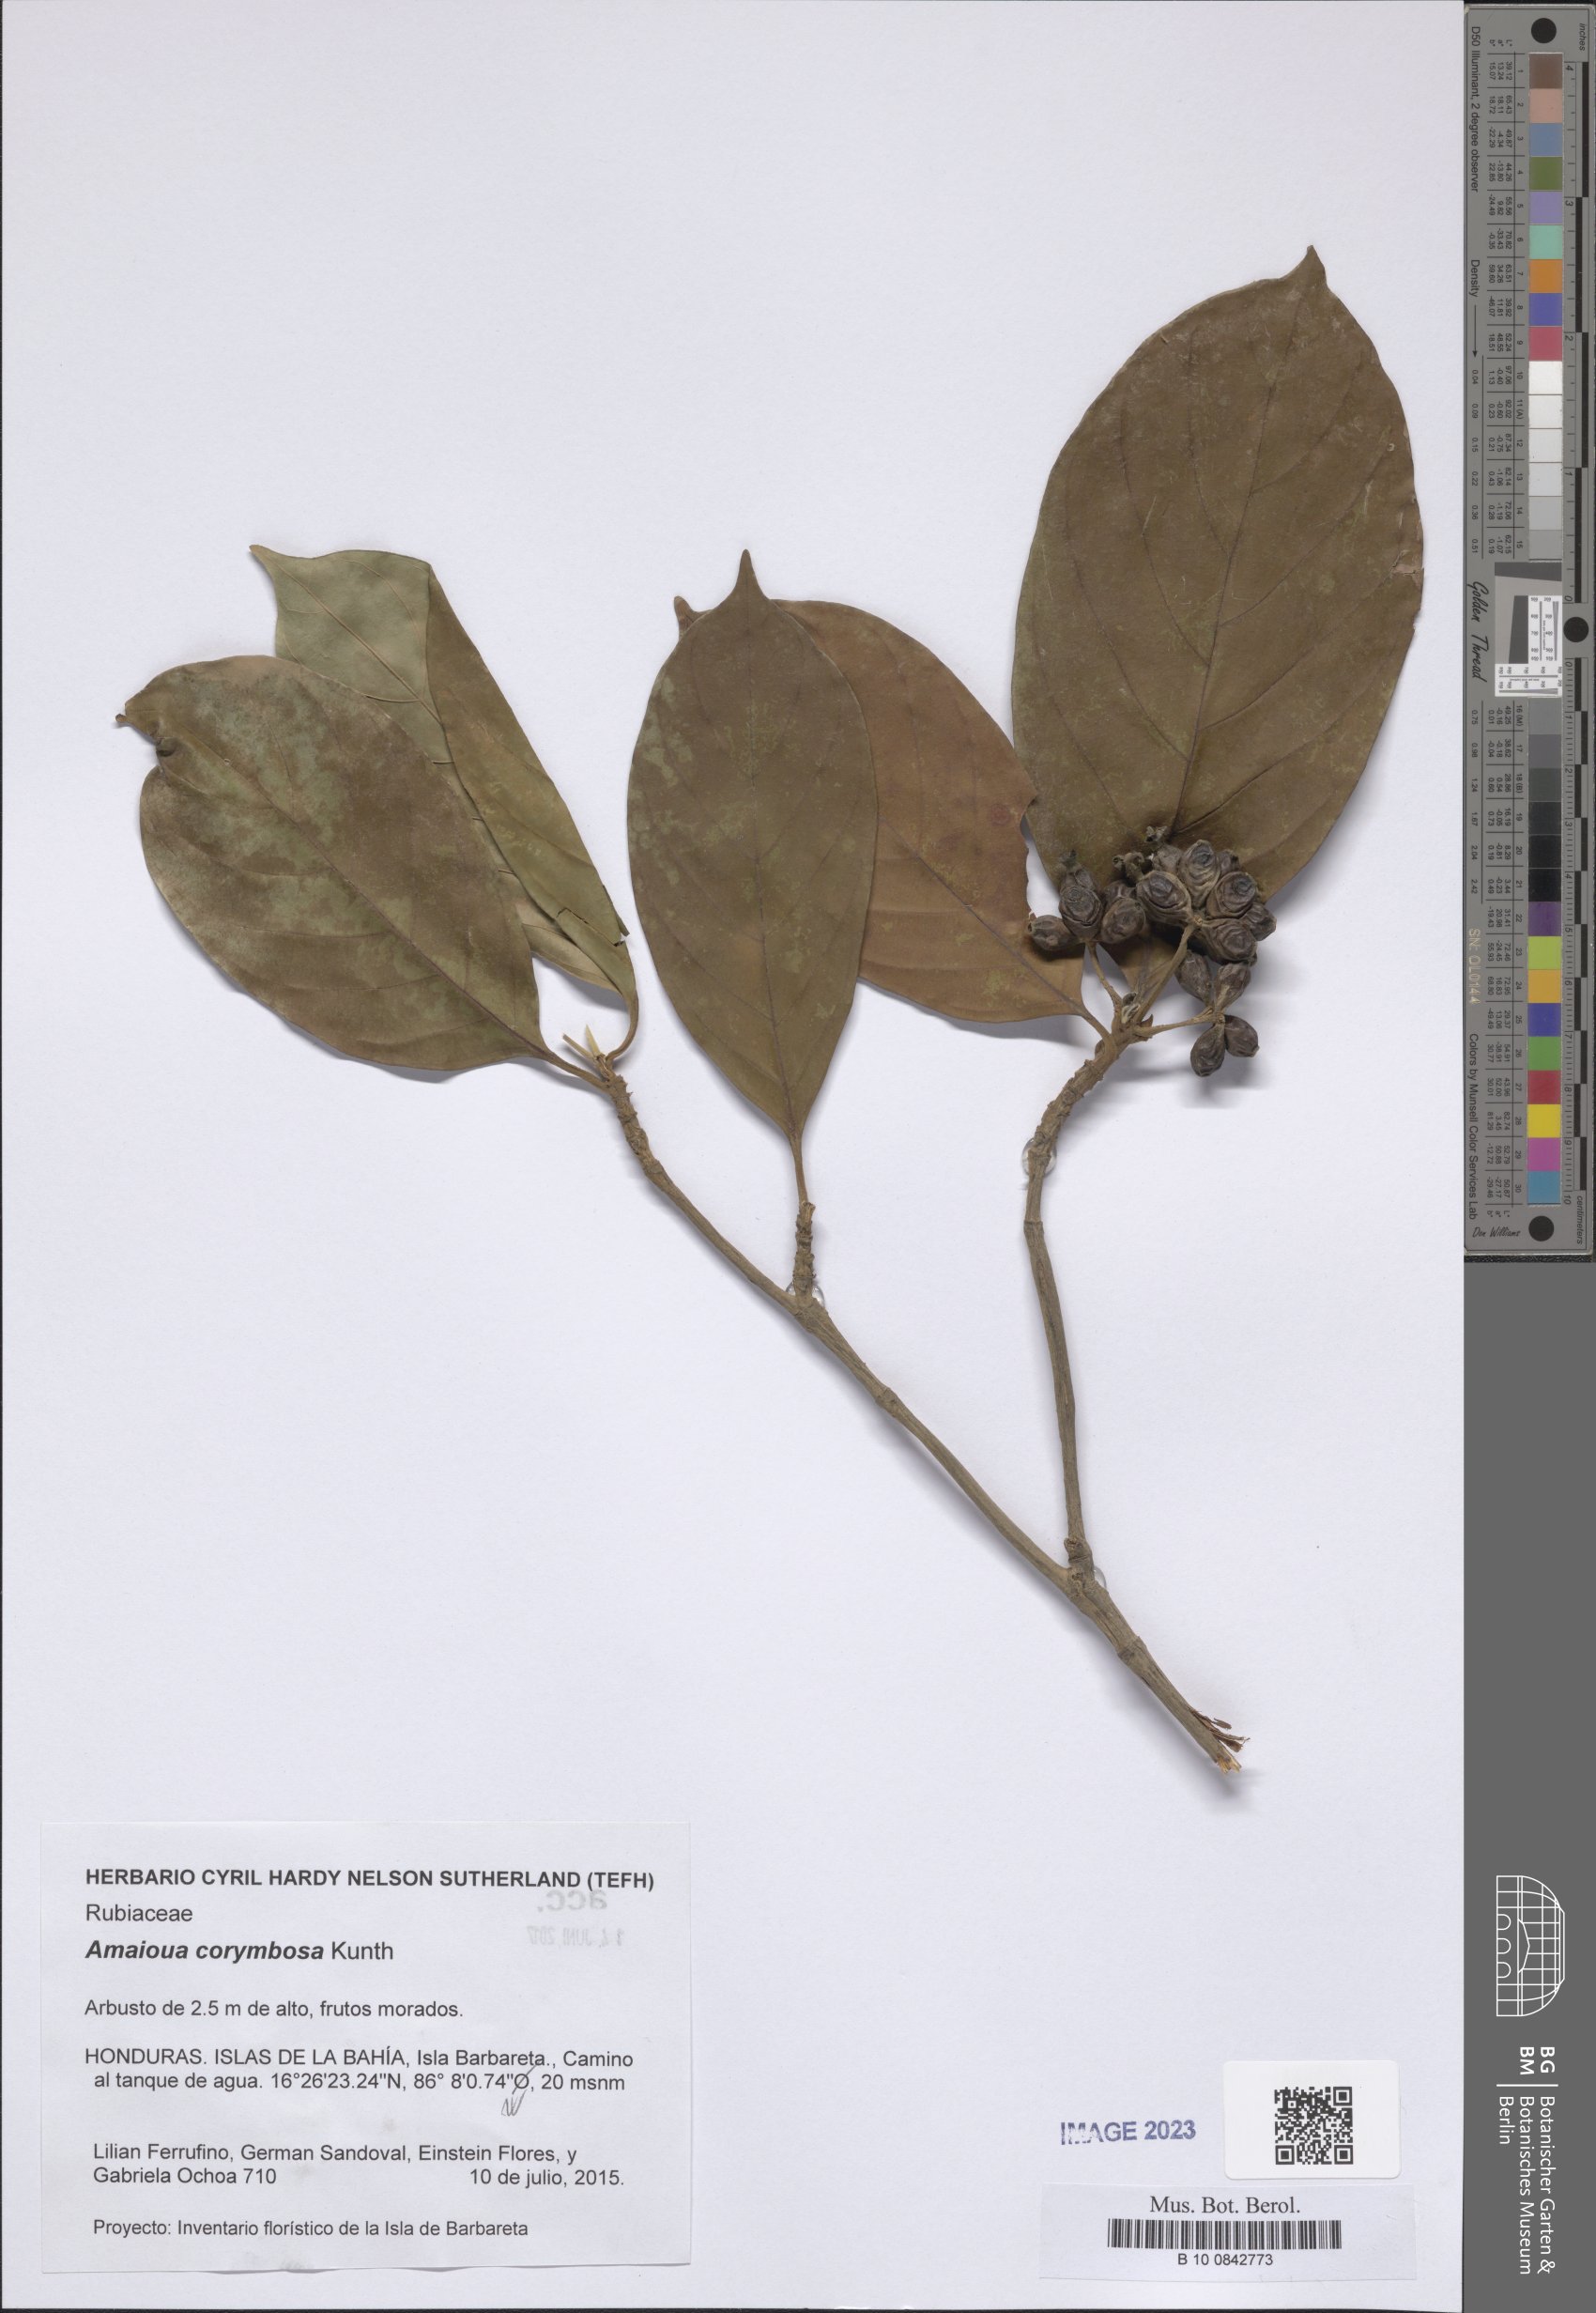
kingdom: Plantae
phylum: Tracheophyta
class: Magnoliopsida
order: Gentianales
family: Rubiaceae
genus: Amaioua
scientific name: Amaioua glomerulata
